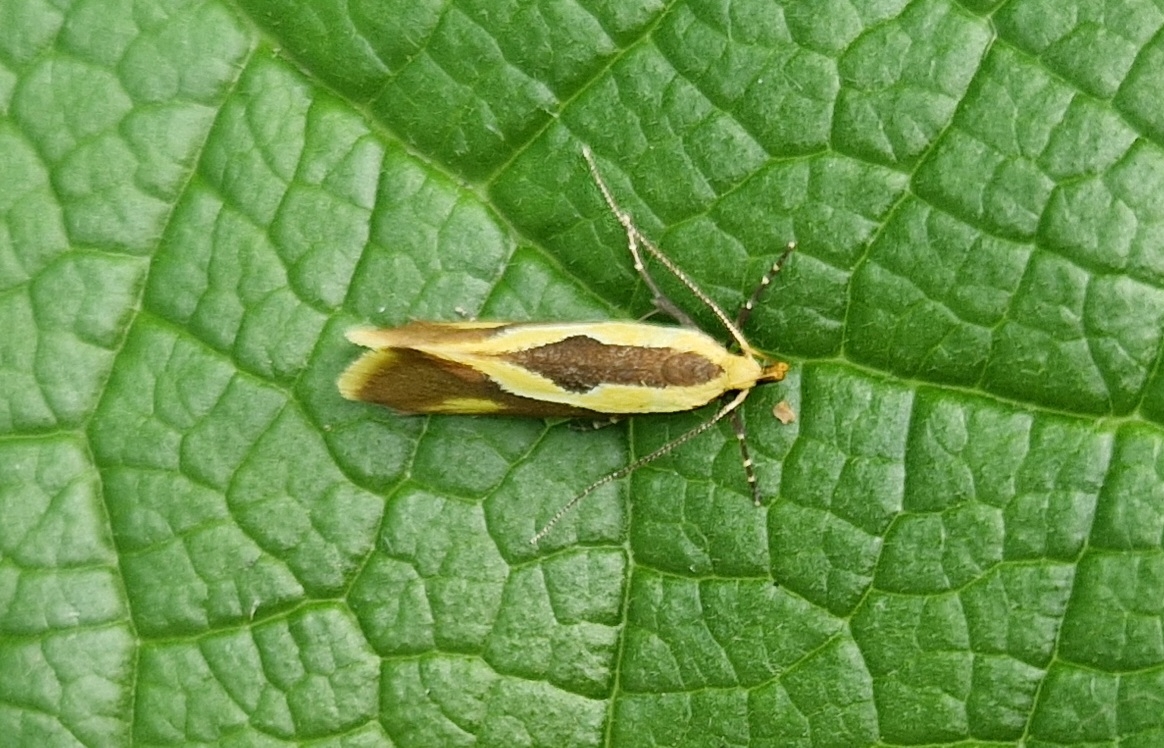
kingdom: Animalia
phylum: Arthropoda
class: Insecta
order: Lepidoptera
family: Oecophoridae
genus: Harpella
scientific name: Harpella forficella
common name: Kæmpeprydvinge
